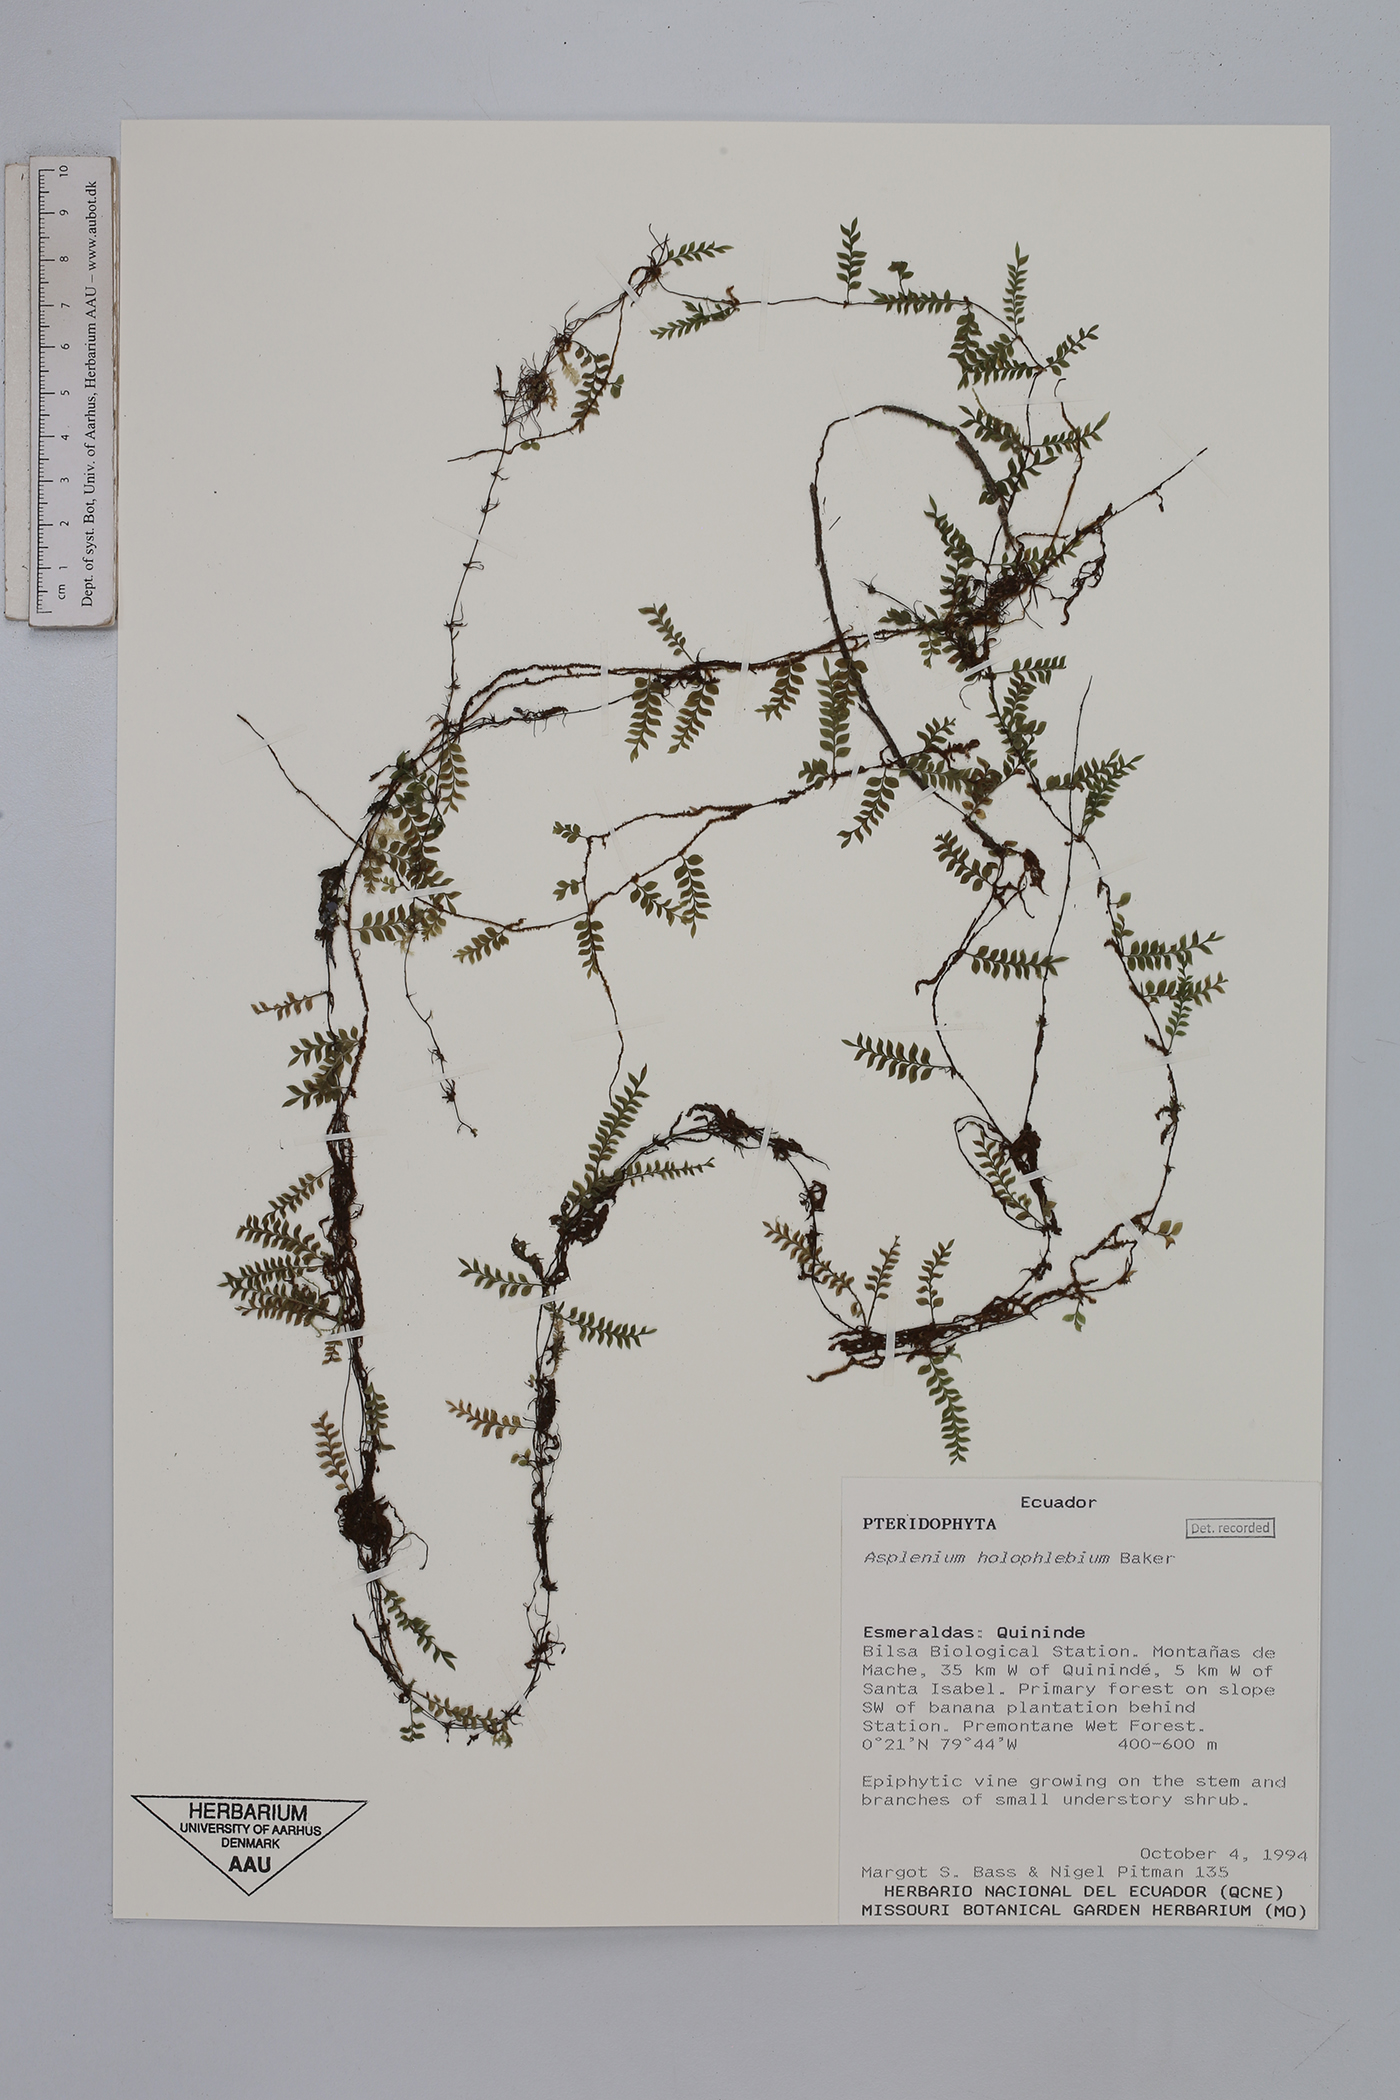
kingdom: Plantae
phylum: Tracheophyta
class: Polypodiopsida
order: Polypodiales
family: Aspleniaceae
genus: Asplenium
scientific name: Asplenium holophlebium
